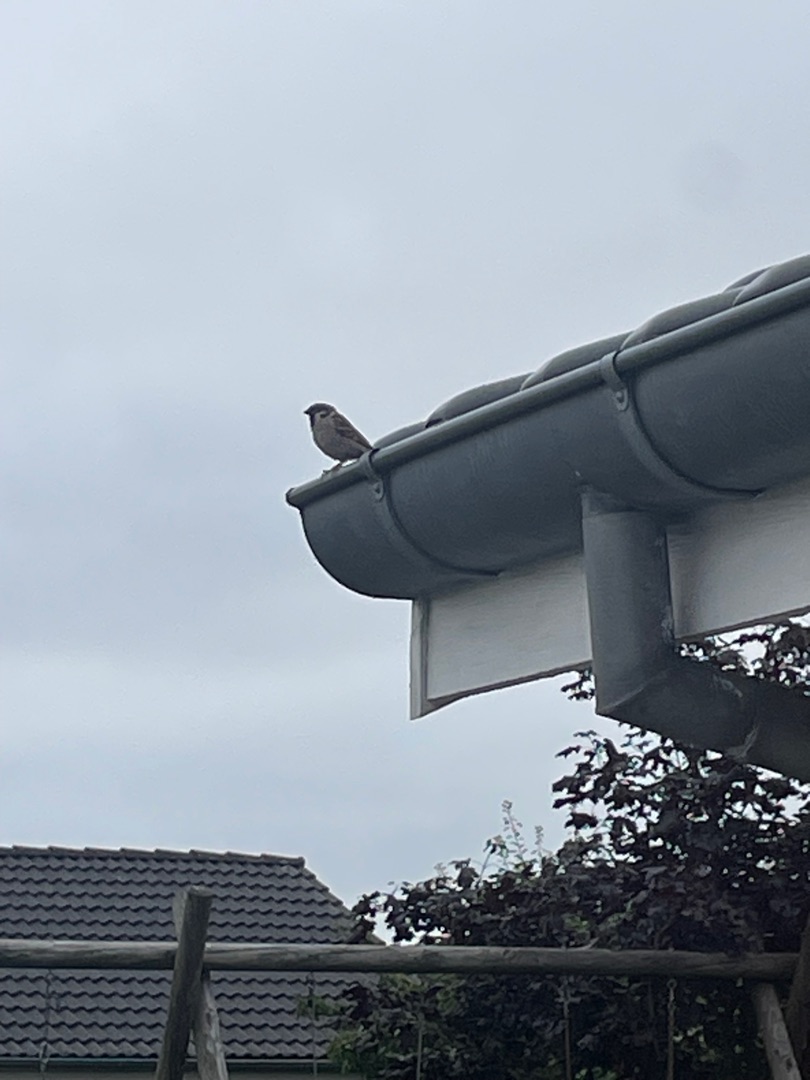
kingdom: Animalia
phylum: Chordata
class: Aves
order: Passeriformes
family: Passeridae
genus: Passer
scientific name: Passer montanus
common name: Skovspurv
